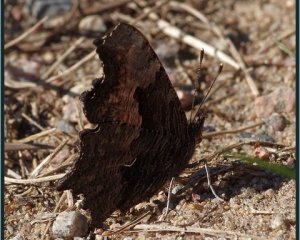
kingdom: Animalia
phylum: Arthropoda
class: Insecta
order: Lepidoptera
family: Nymphalidae
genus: Polygonia
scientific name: Polygonia progne
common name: Gray Comma
